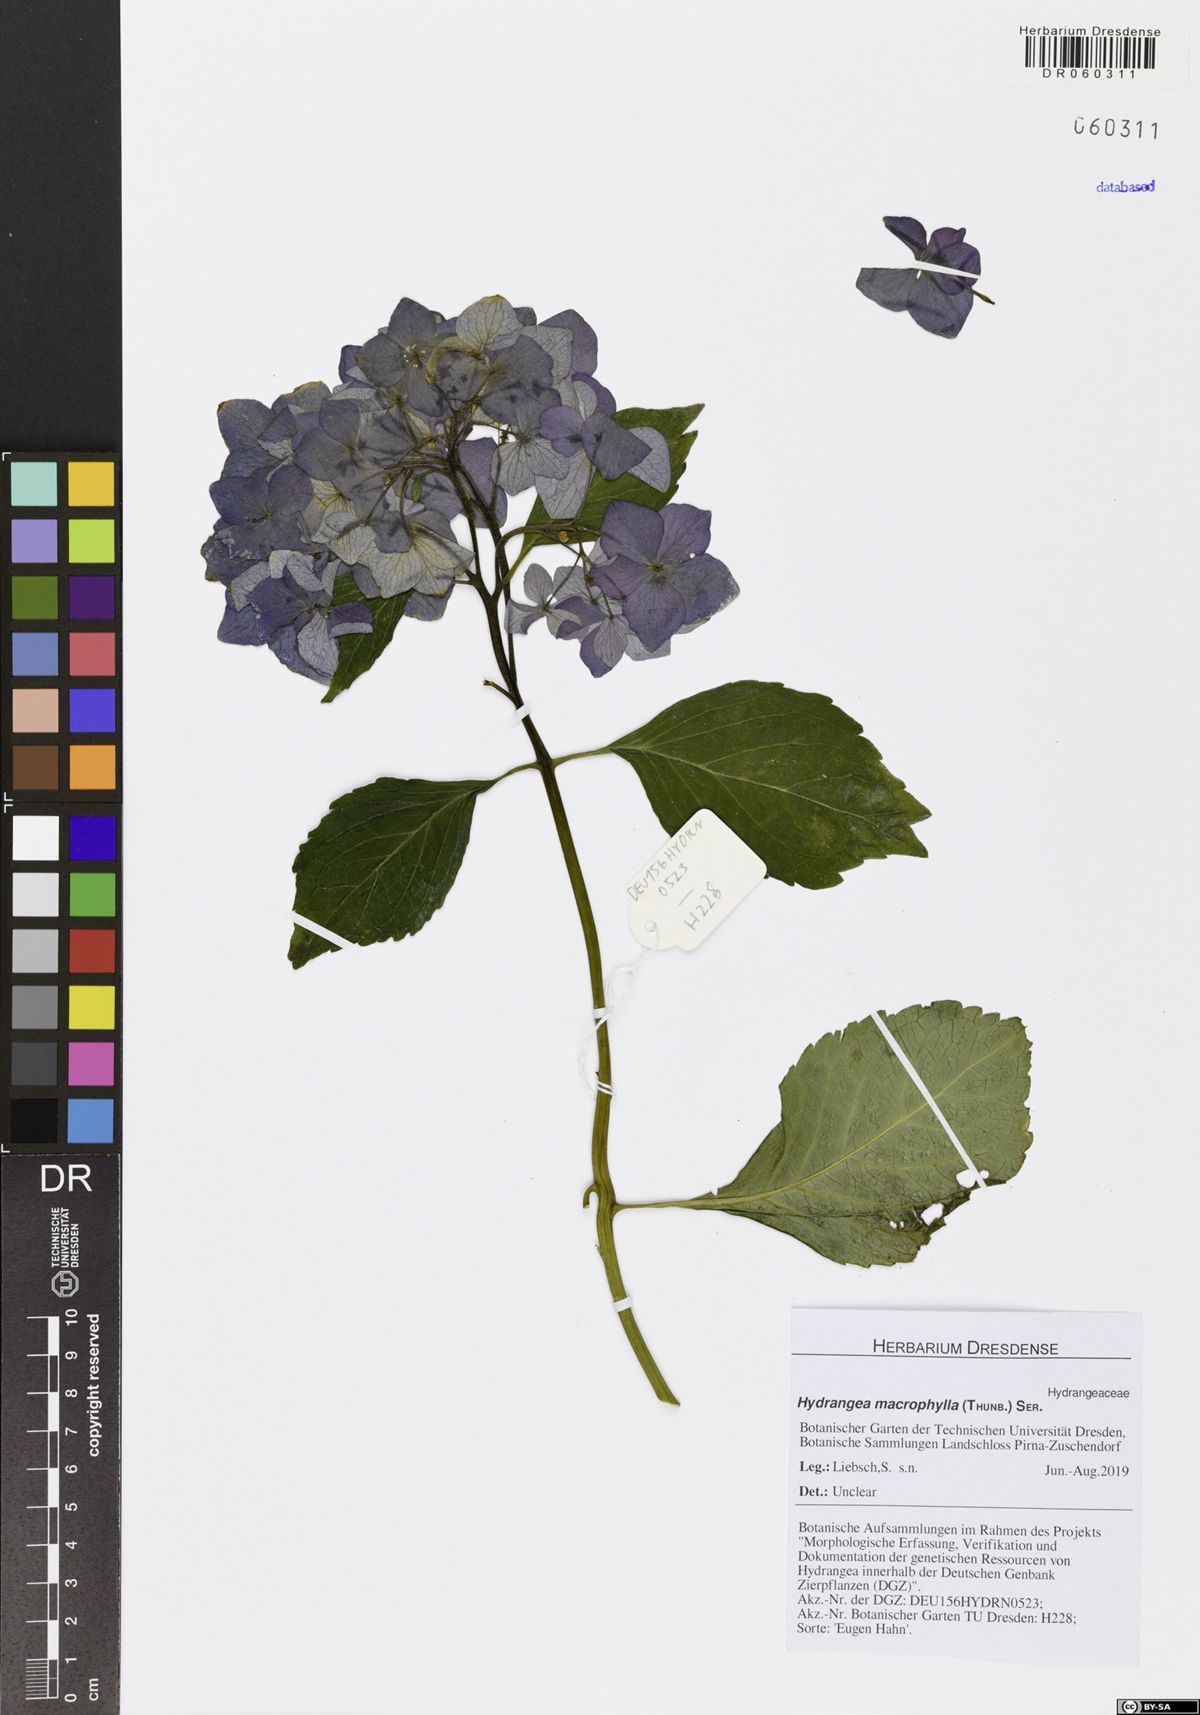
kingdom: Plantae
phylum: Tracheophyta
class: Magnoliopsida
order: Cornales
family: Hydrangeaceae
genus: Hydrangea
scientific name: Hydrangea macrophylla
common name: Hydrangea
